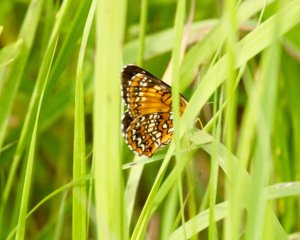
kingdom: Animalia
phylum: Arthropoda
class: Insecta
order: Lepidoptera
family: Nymphalidae
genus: Chlosyne
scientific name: Chlosyne harrisii
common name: Harris's Checkerspot
